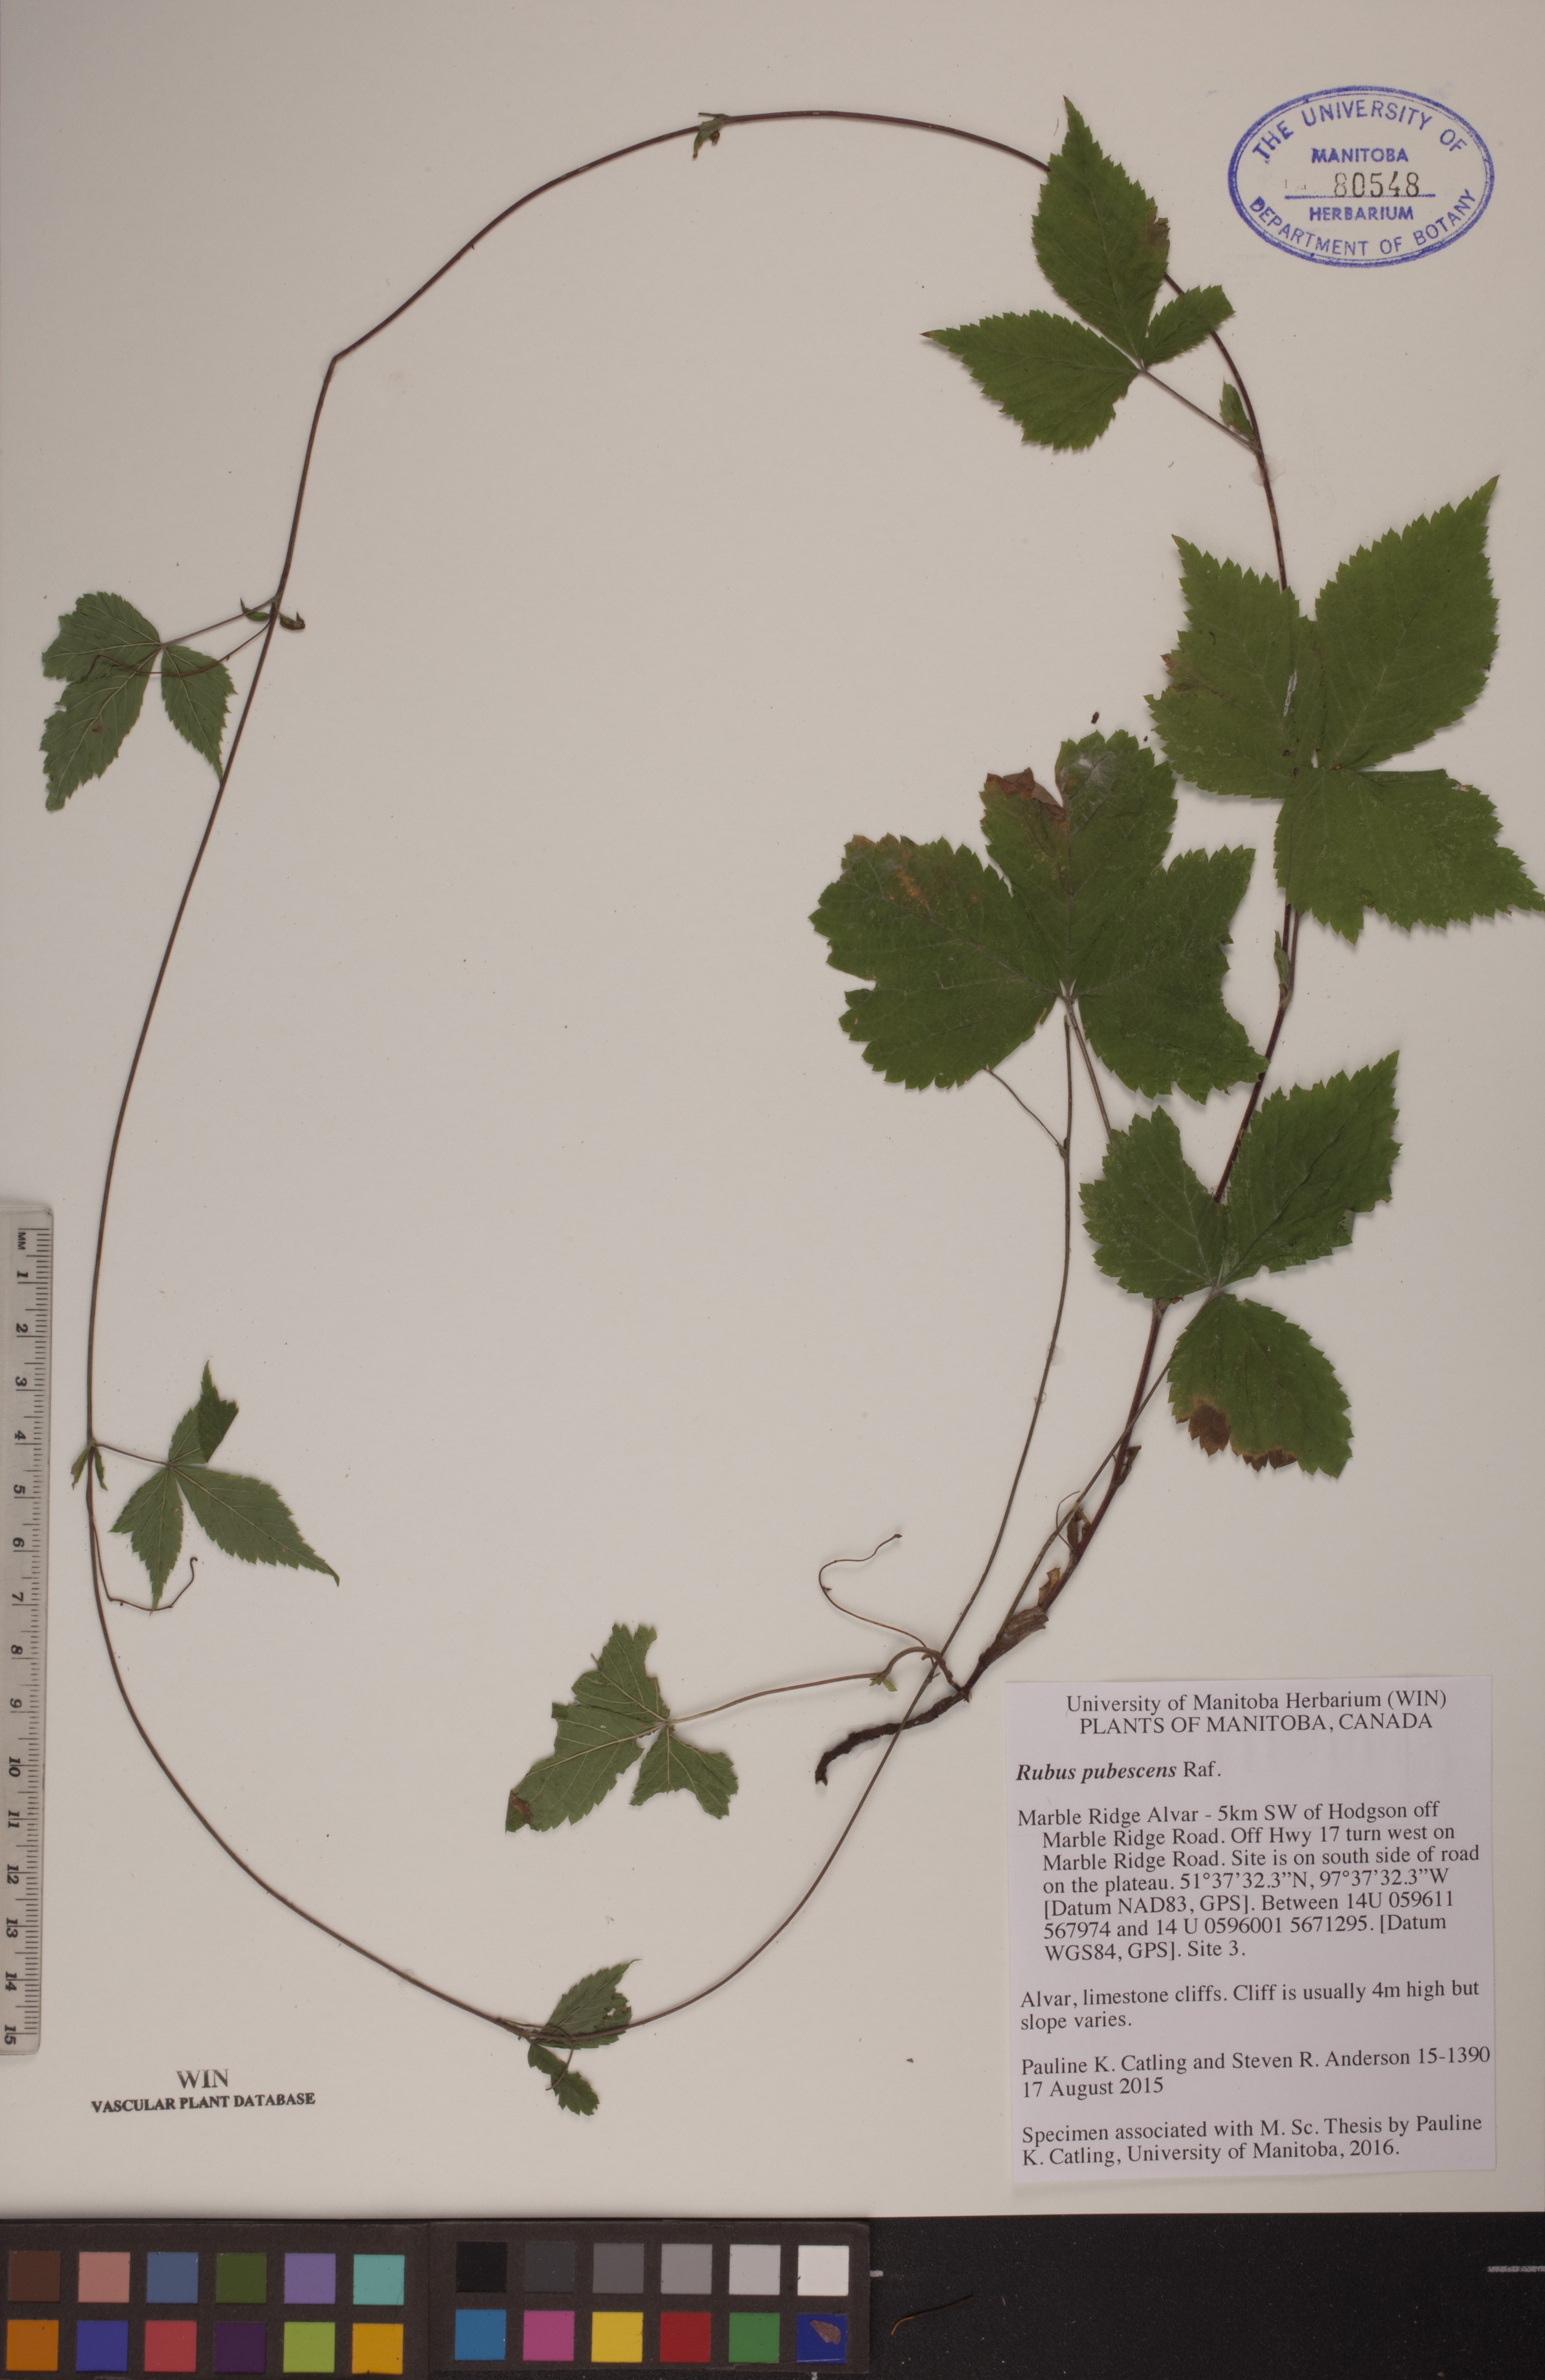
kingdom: Plantae
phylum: Tracheophyta
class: Magnoliopsida
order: Rosales
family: Rosaceae
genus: Rubus
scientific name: Rubus pubescens
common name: Dwarf raspberry
